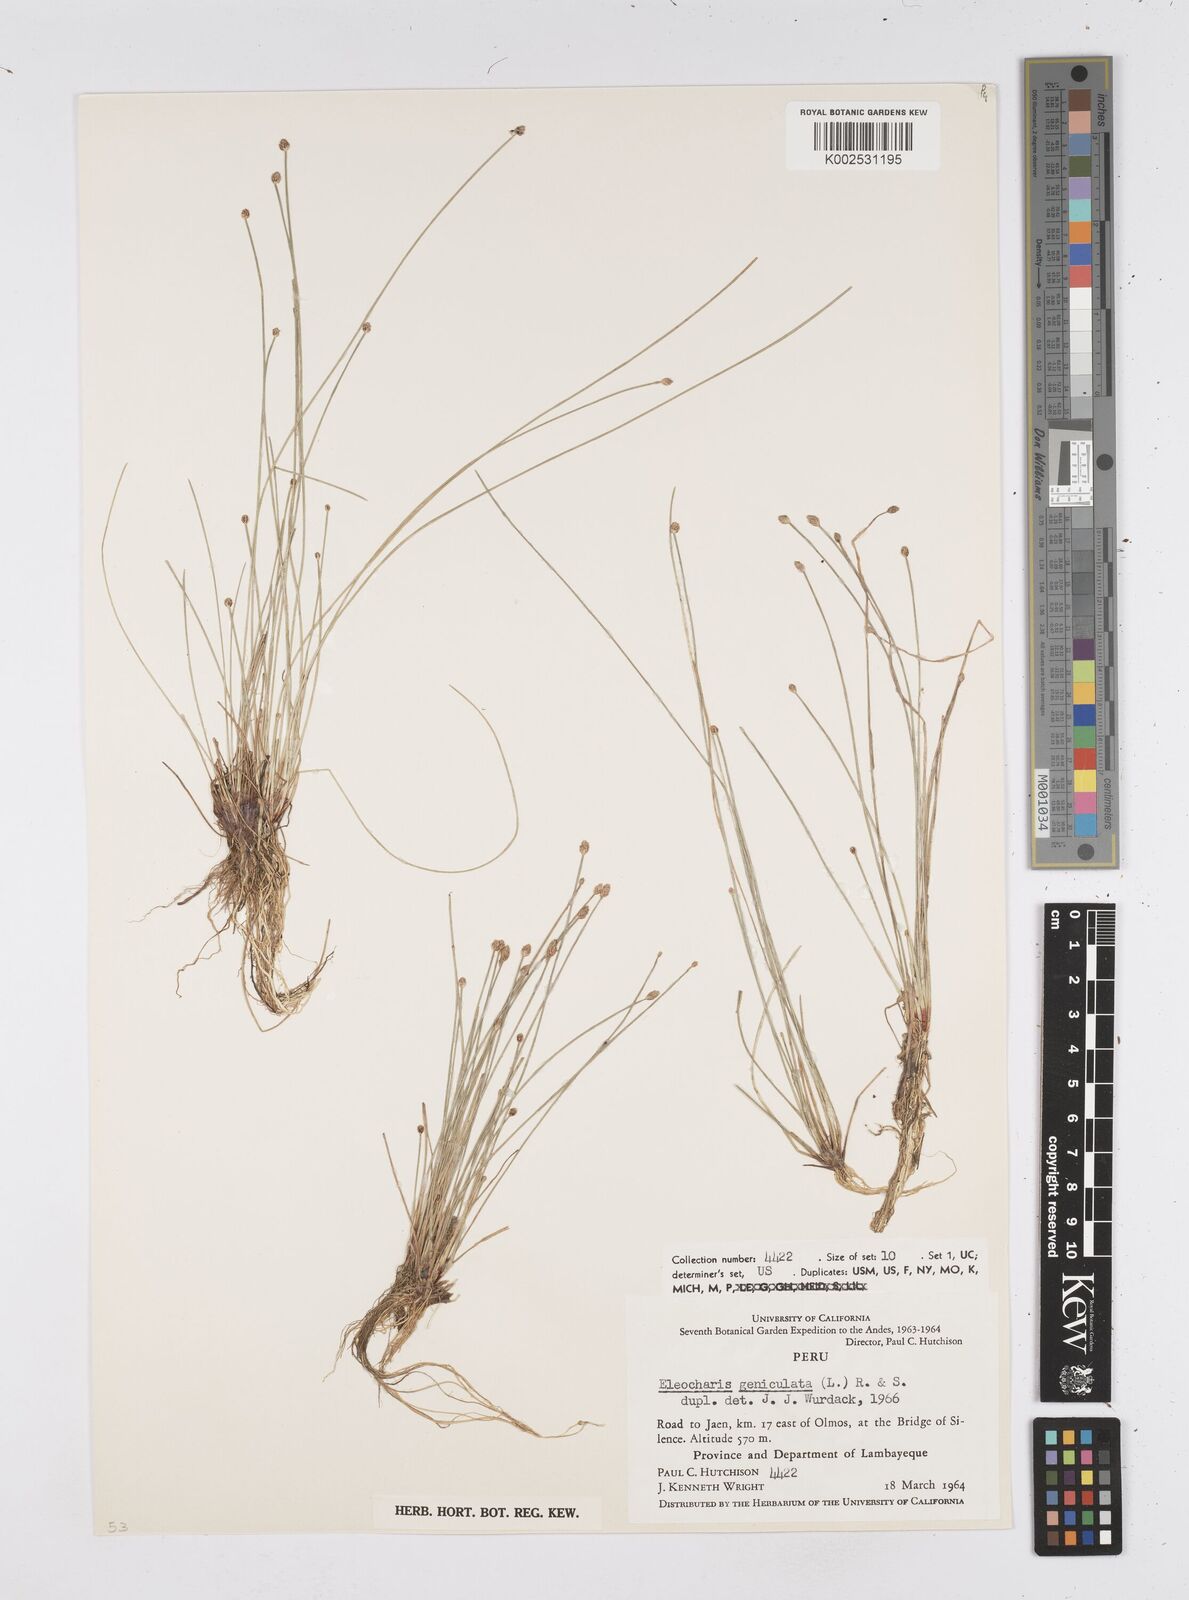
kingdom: Plantae
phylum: Tracheophyta
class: Liliopsida
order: Poales
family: Cyperaceae
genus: Eleocharis
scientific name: Eleocharis geniculata
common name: Canada spikesedge
